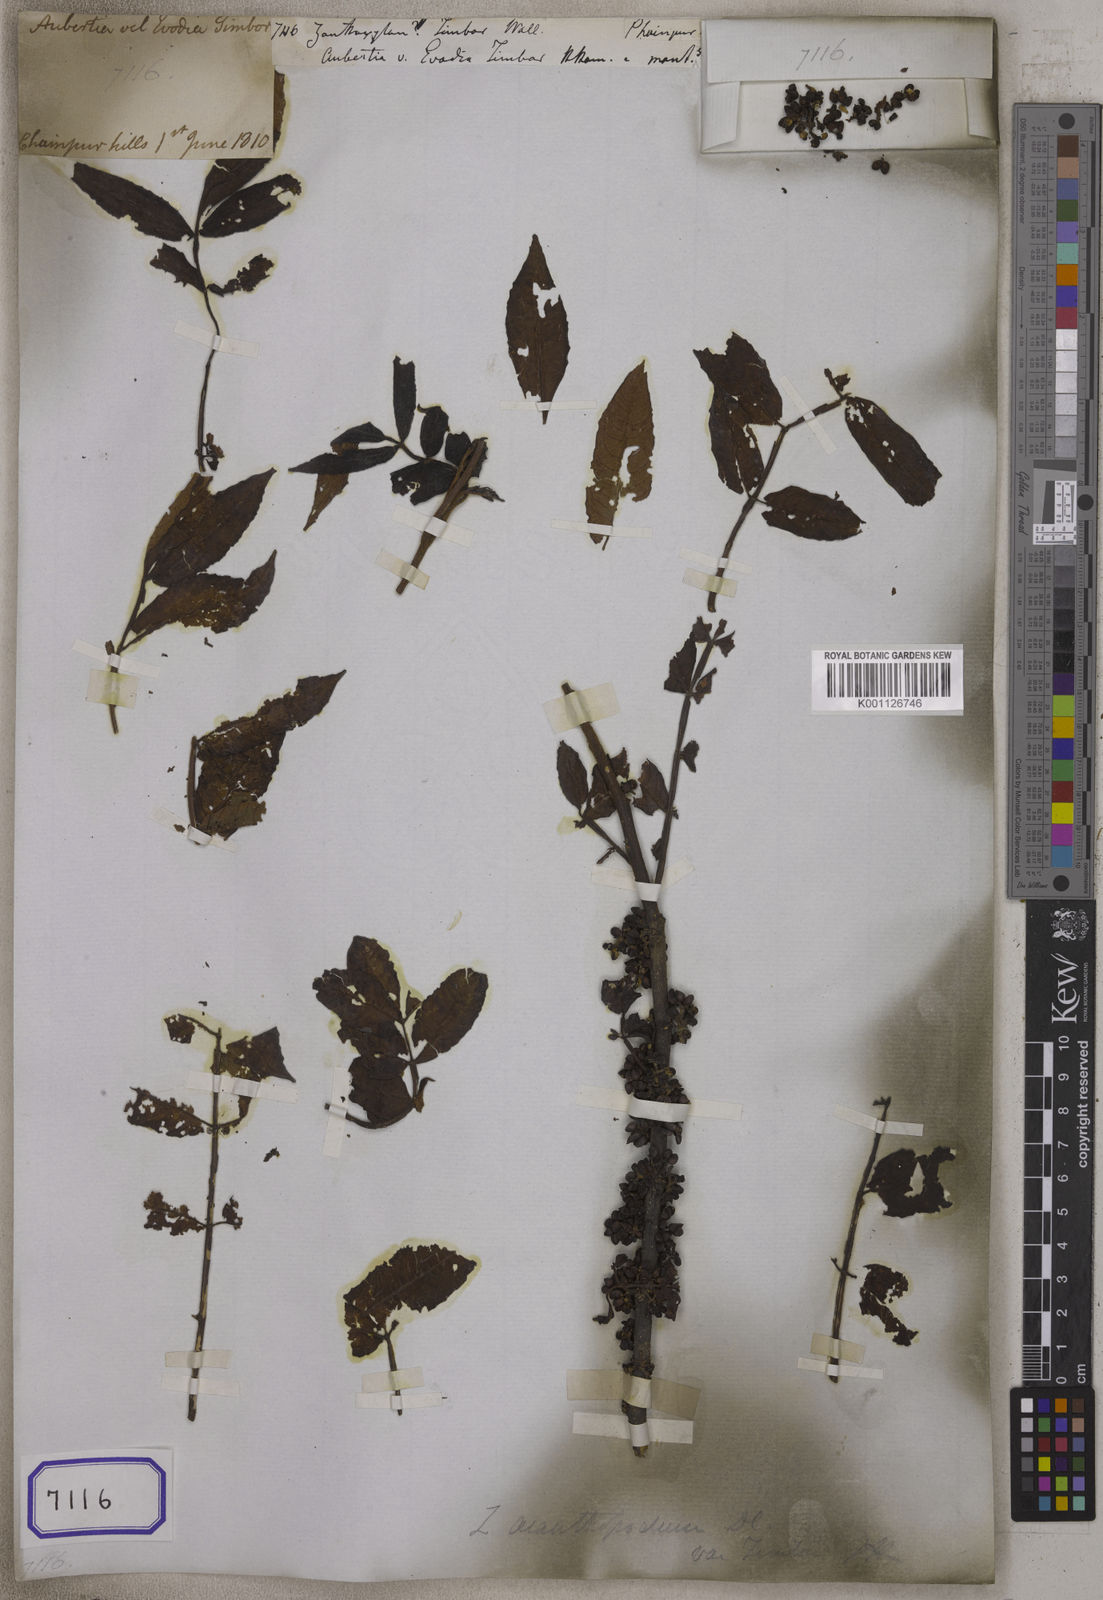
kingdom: Plantae
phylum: Tracheophyta
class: Magnoliopsida
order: Sapindales
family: Rutaceae
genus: Zanthoxylum
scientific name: Zanthoxylum acanthopodium
